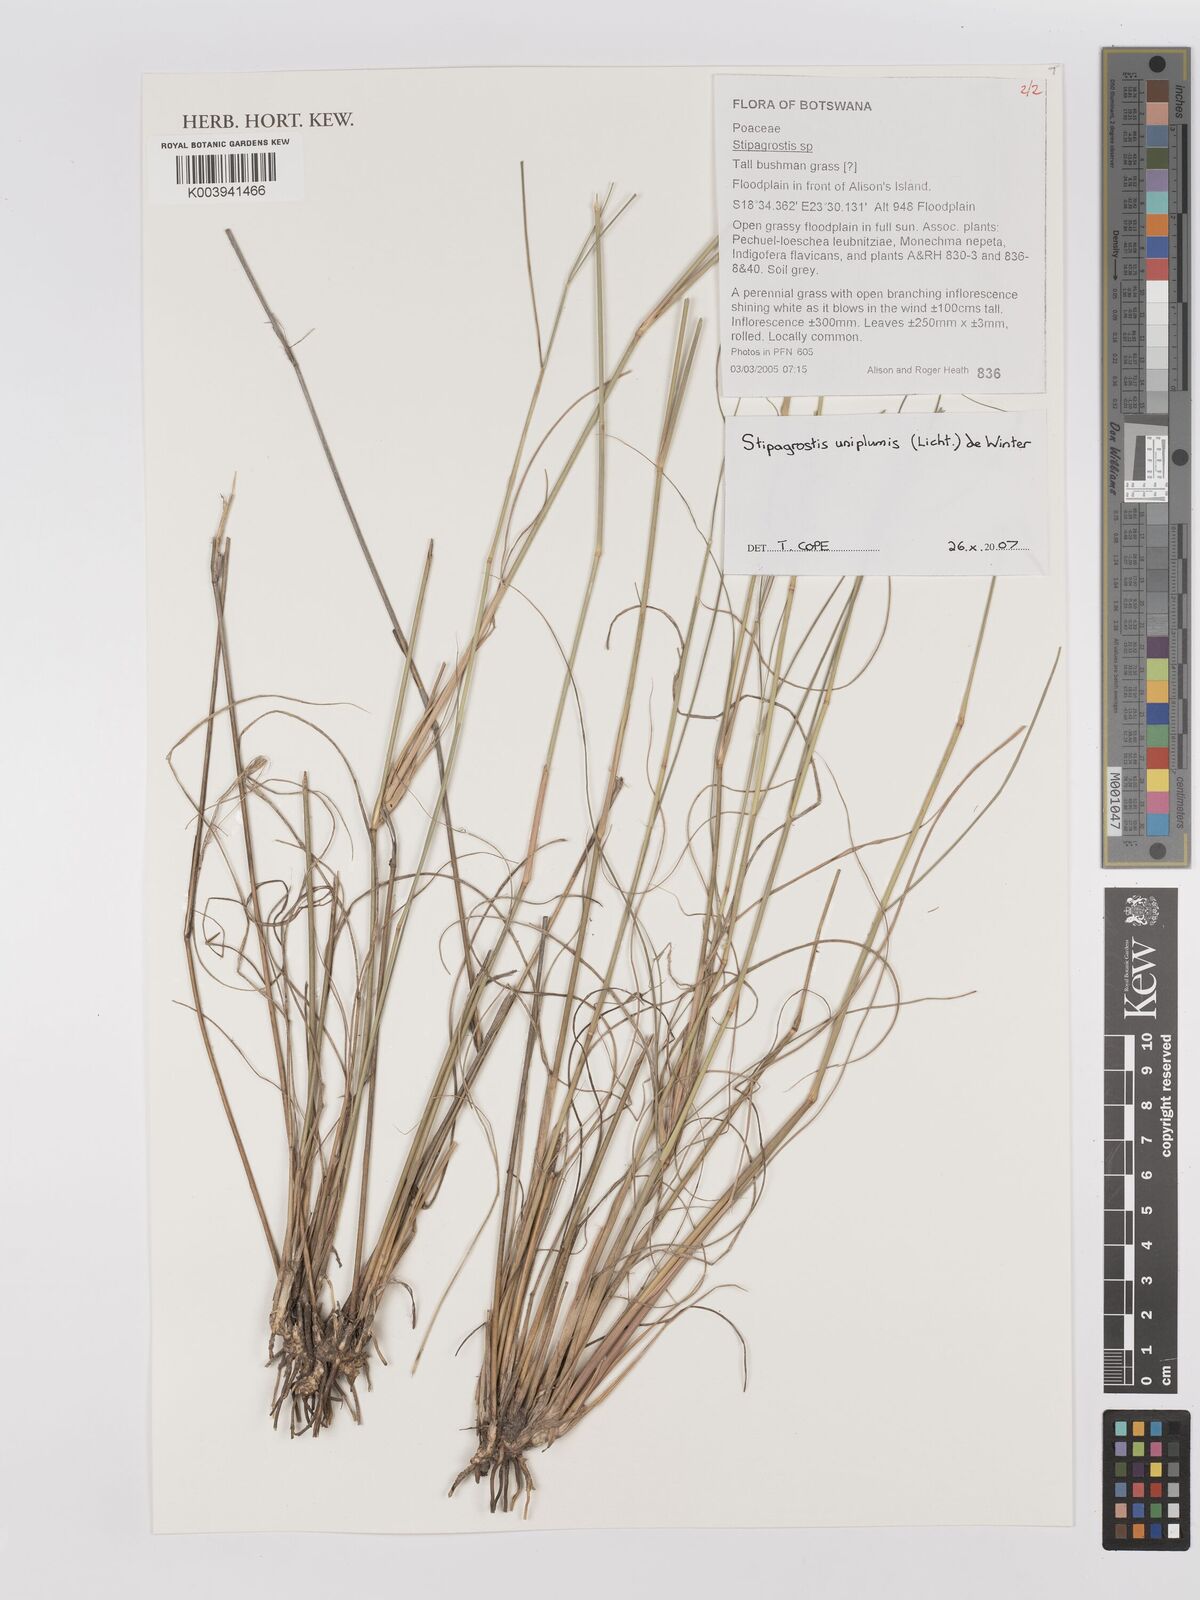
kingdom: Plantae
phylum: Tracheophyta
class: Liliopsida
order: Poales
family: Poaceae
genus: Stipagrostis
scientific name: Stipagrostis uniplumis
